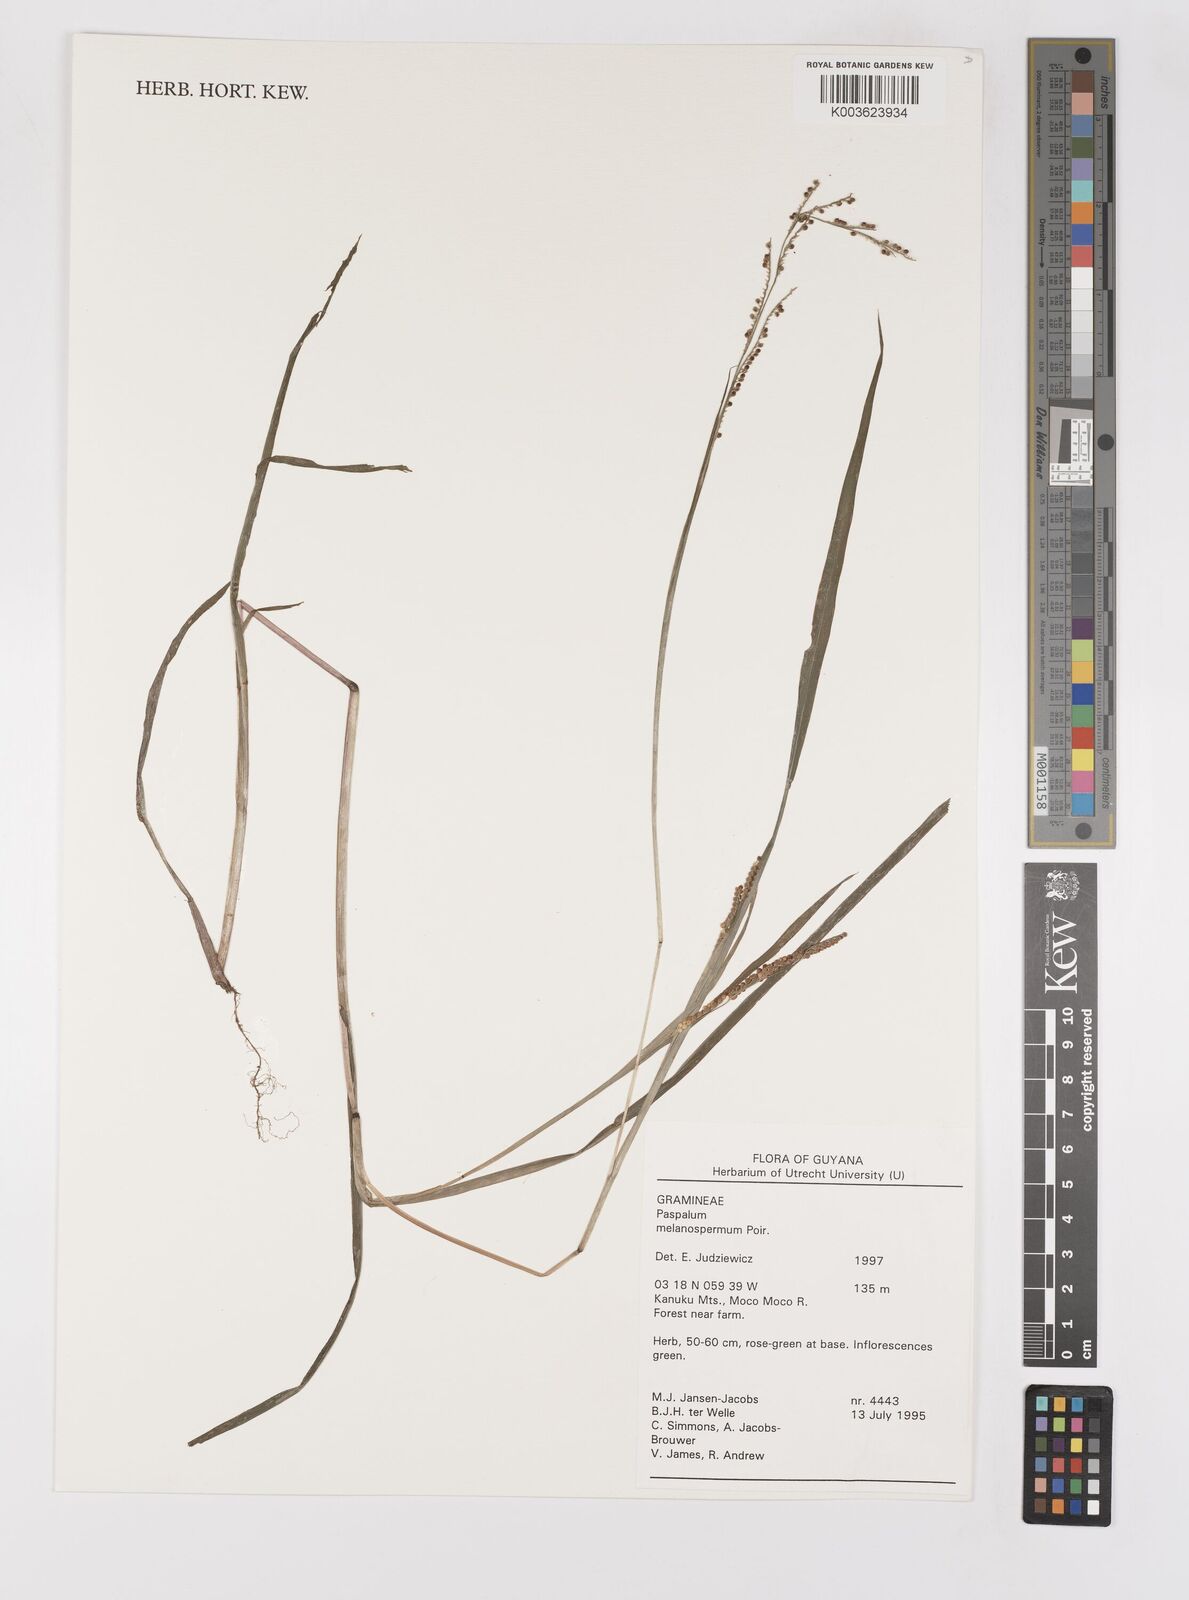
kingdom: Plantae
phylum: Tracheophyta
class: Liliopsida
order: Poales
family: Poaceae
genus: Paspalum
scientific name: Paspalum melanospermum
